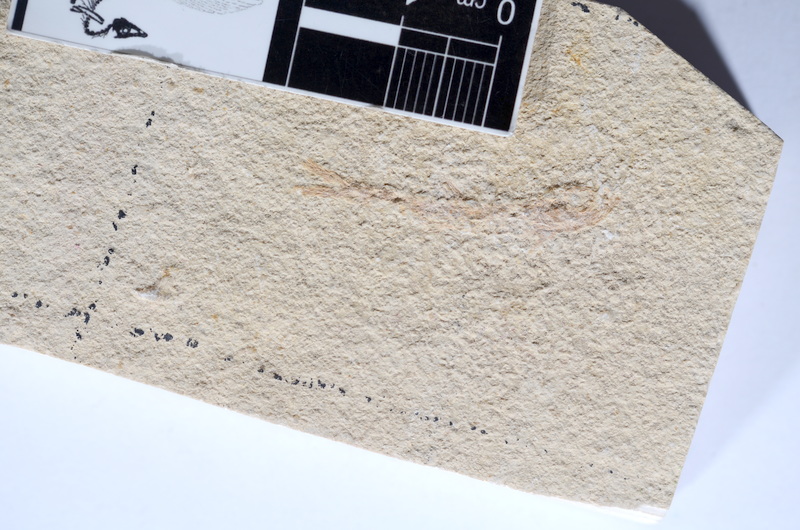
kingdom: Animalia
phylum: Chordata
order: Salmoniformes
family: Orthogonikleithridae
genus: Leptolepides
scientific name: Leptolepides sprattiformis
